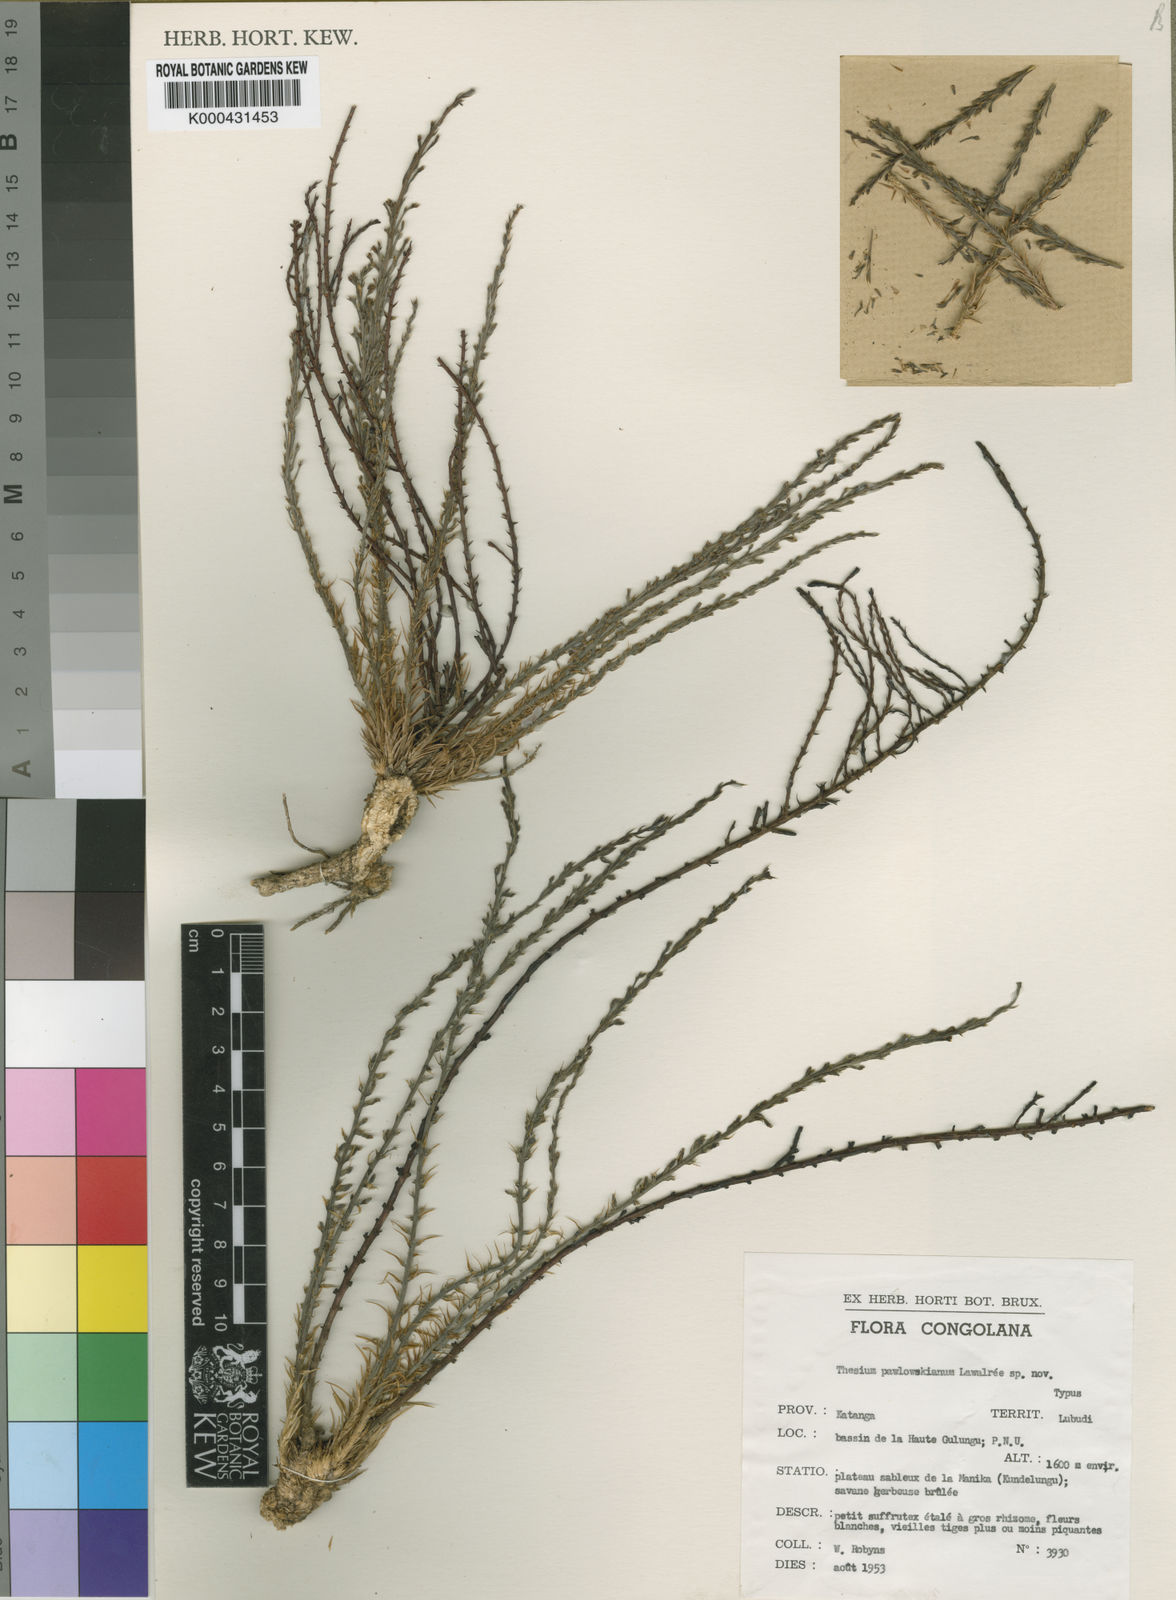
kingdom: Plantae
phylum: Tracheophyta
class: Magnoliopsida
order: Santalales
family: Thesiaceae
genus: Thesium
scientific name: Thesium
